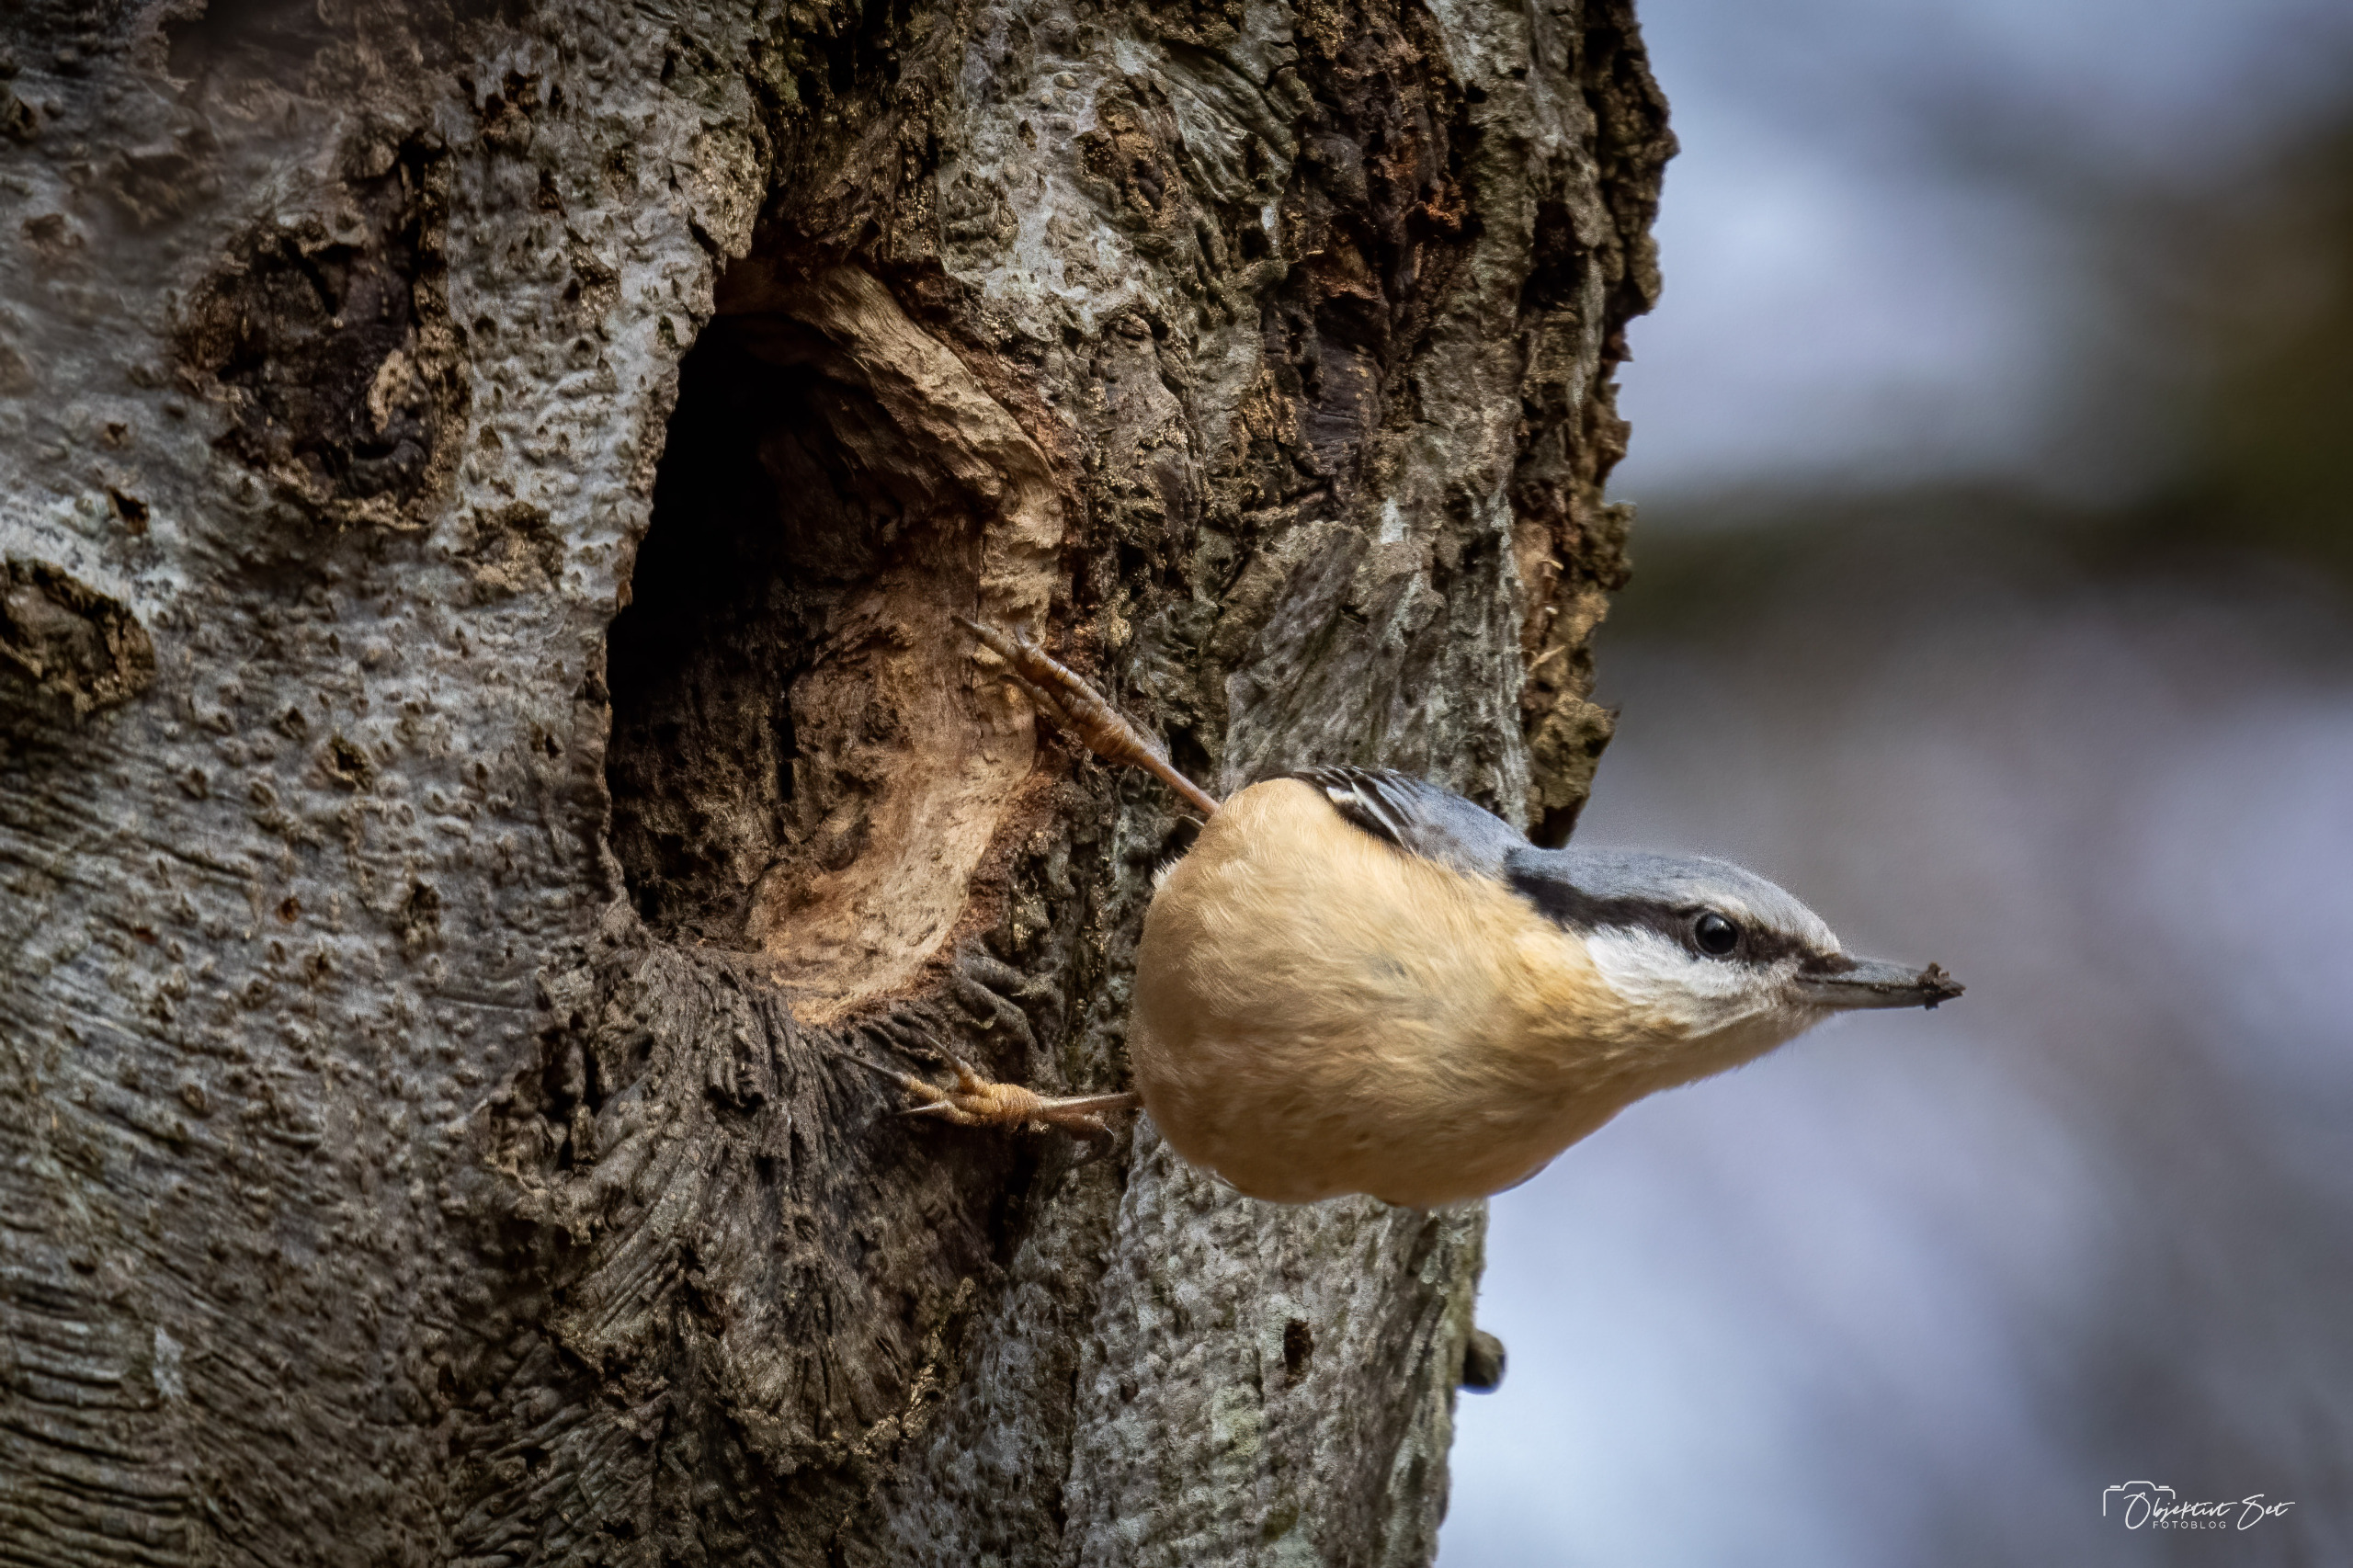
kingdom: Animalia
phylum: Chordata
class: Aves
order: Passeriformes
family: Sittidae
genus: Sitta
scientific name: Sitta europaea
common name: Spætmejse
